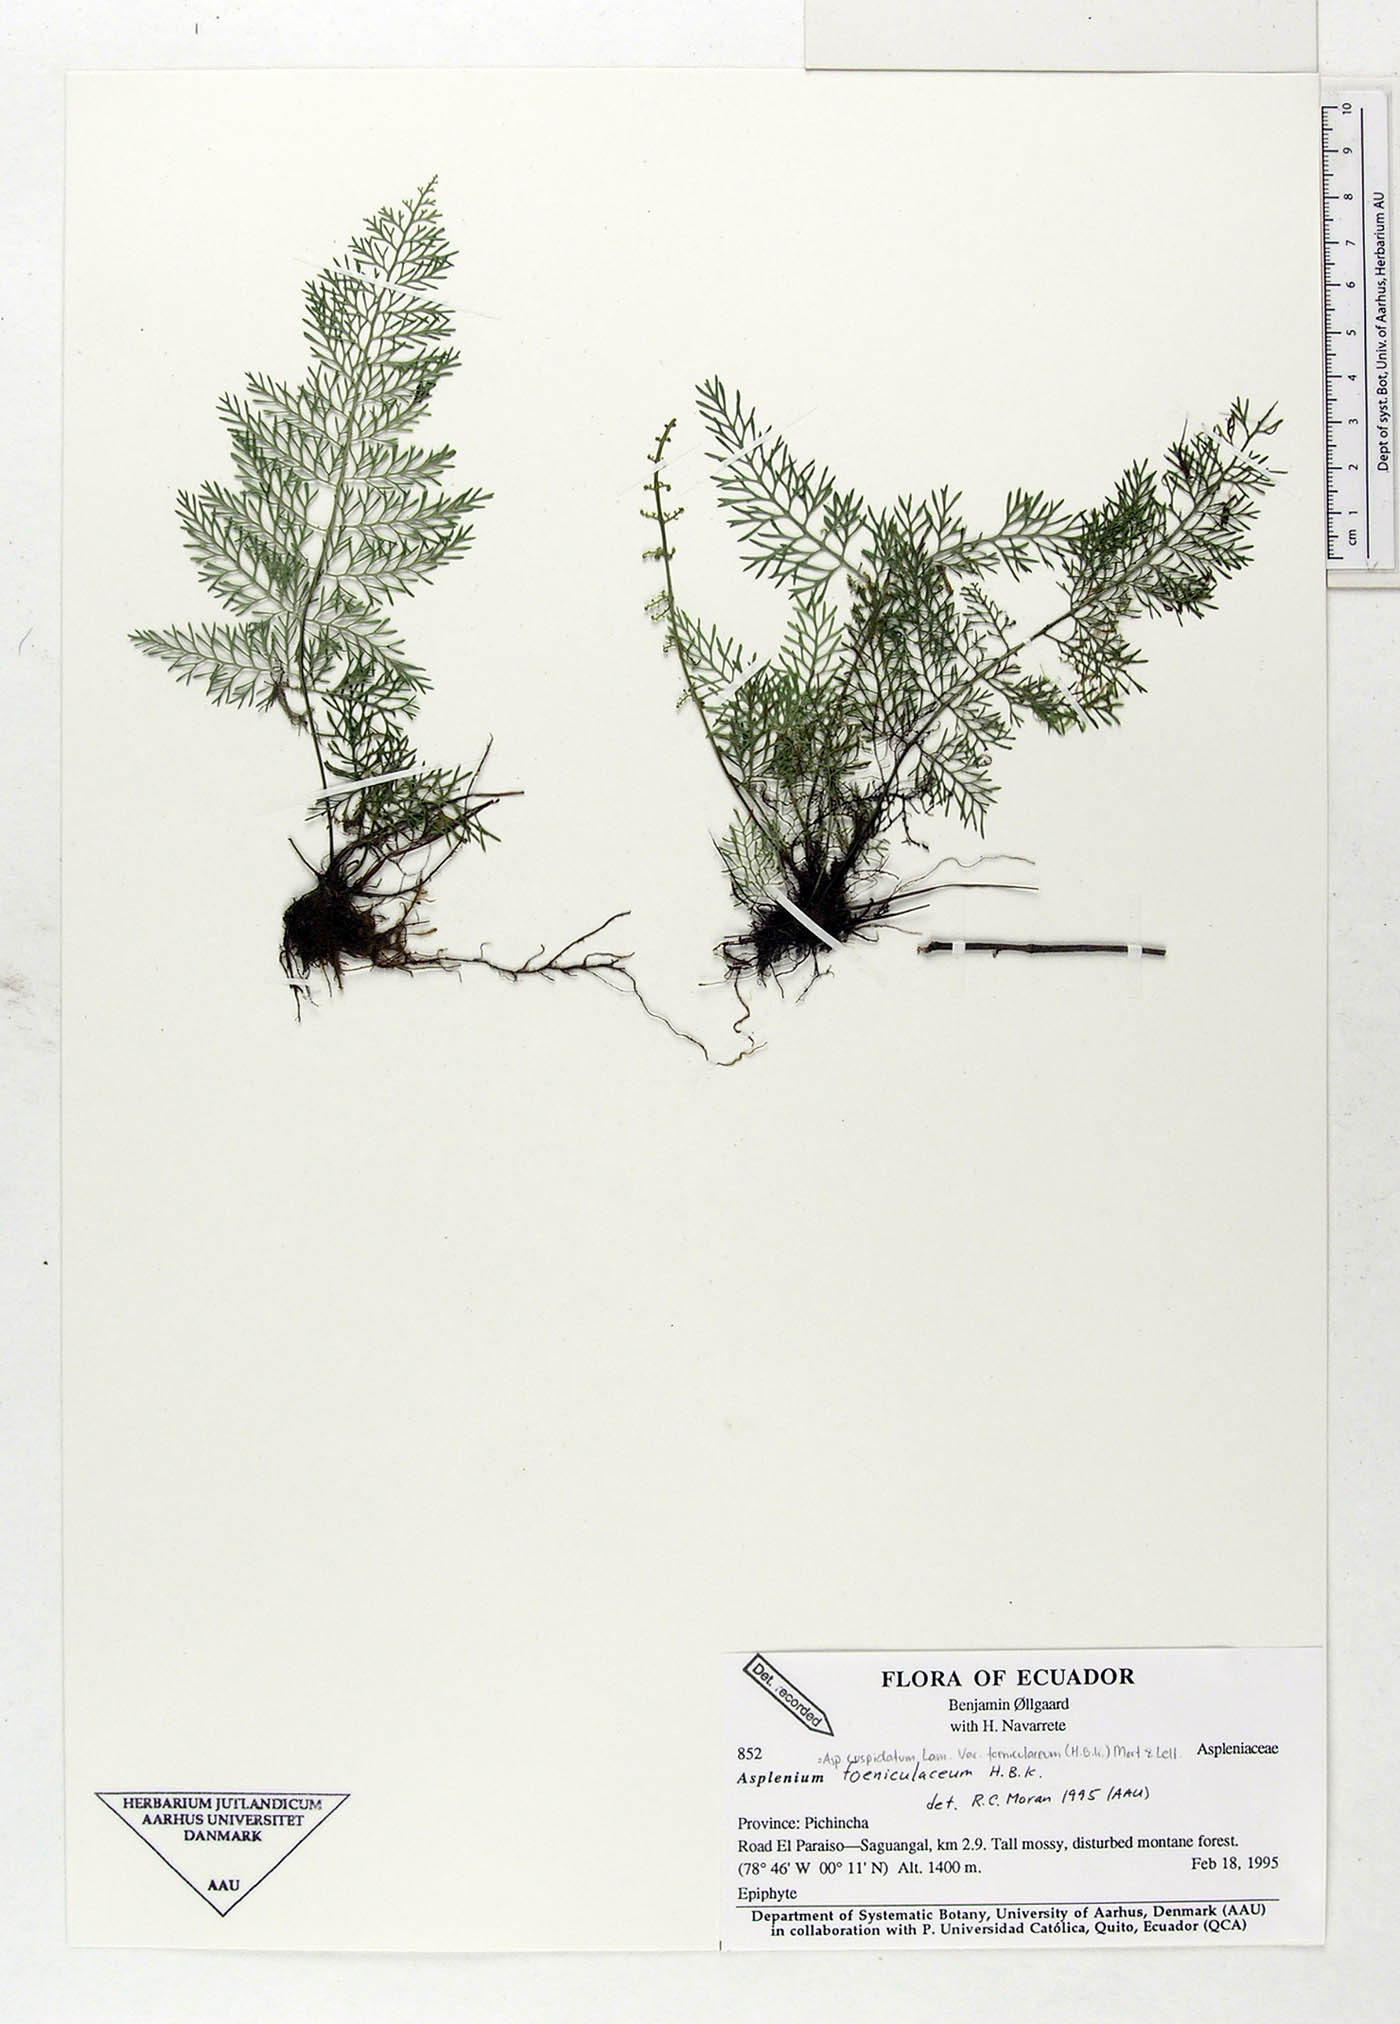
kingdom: Plantae
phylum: Tracheophyta
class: Polypodiopsida
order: Polypodiales
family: Aspleniaceae
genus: Asplenium
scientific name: Asplenium fragrans
